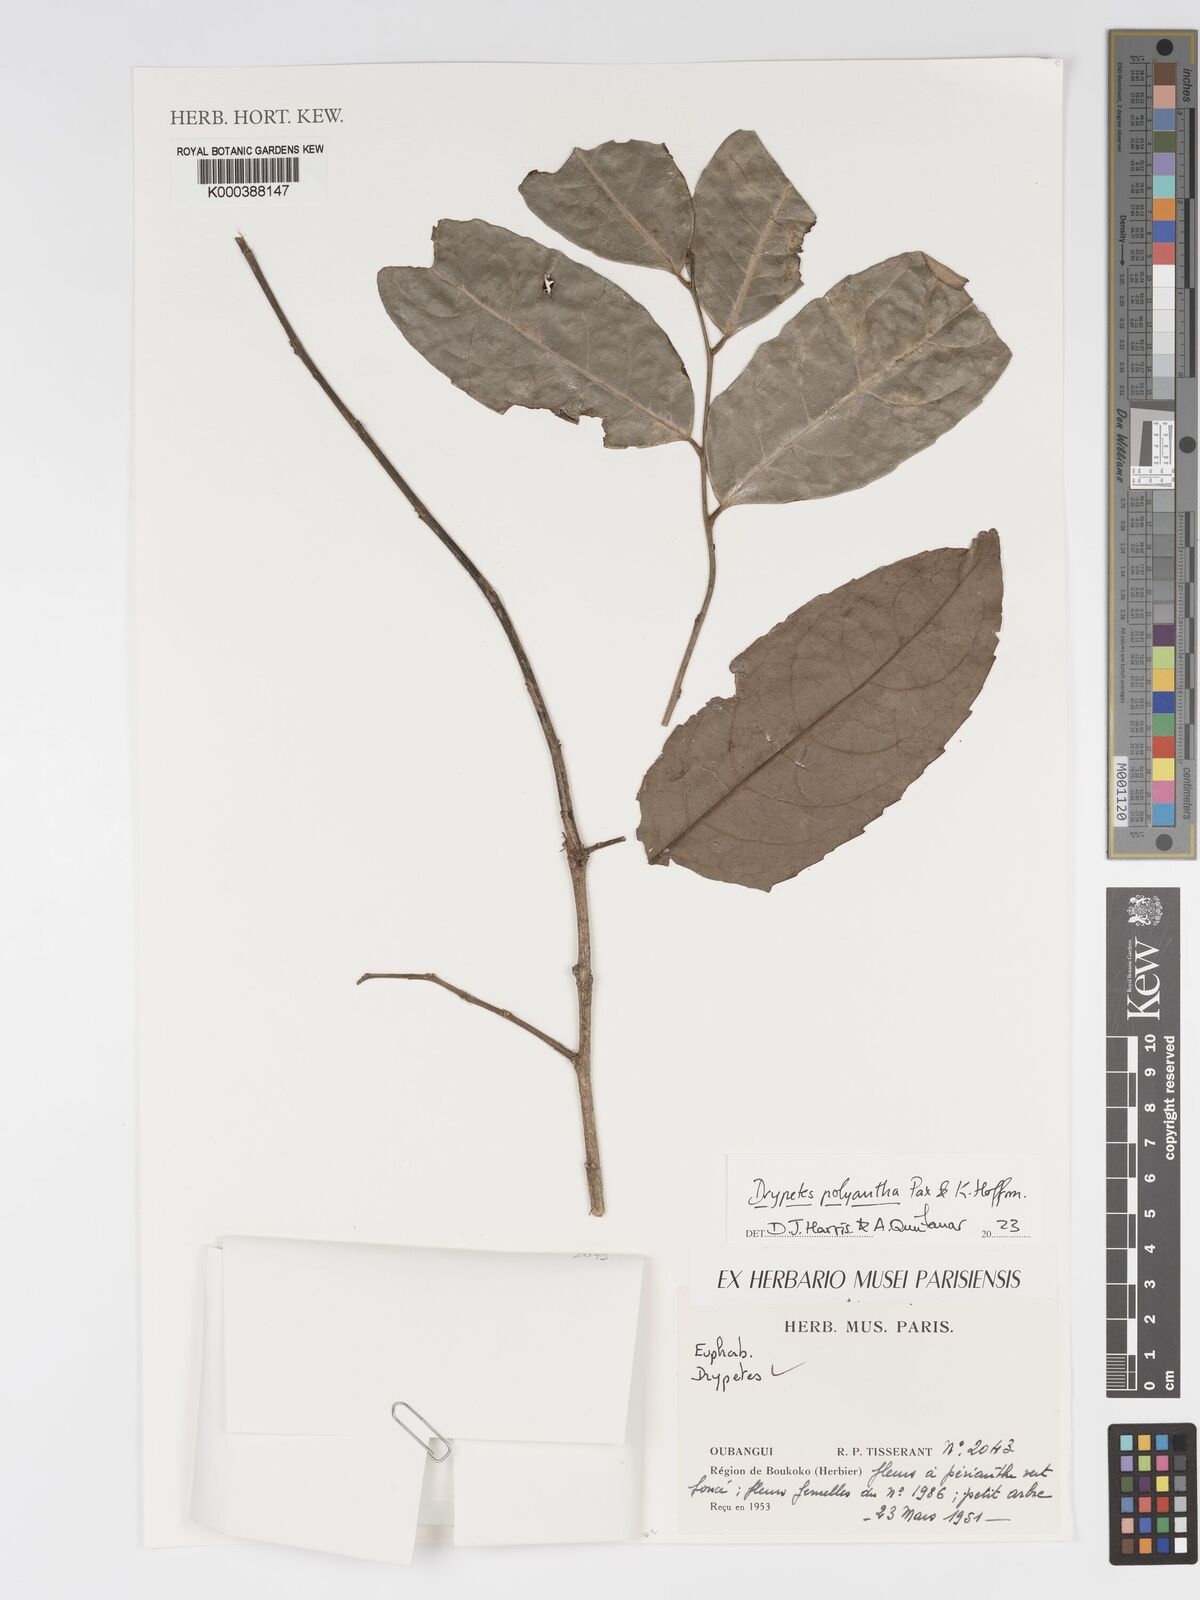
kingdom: Plantae
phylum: Tracheophyta
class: Magnoliopsida
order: Malpighiales
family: Putranjivaceae
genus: Drypetes
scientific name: Drypetes polyantha
